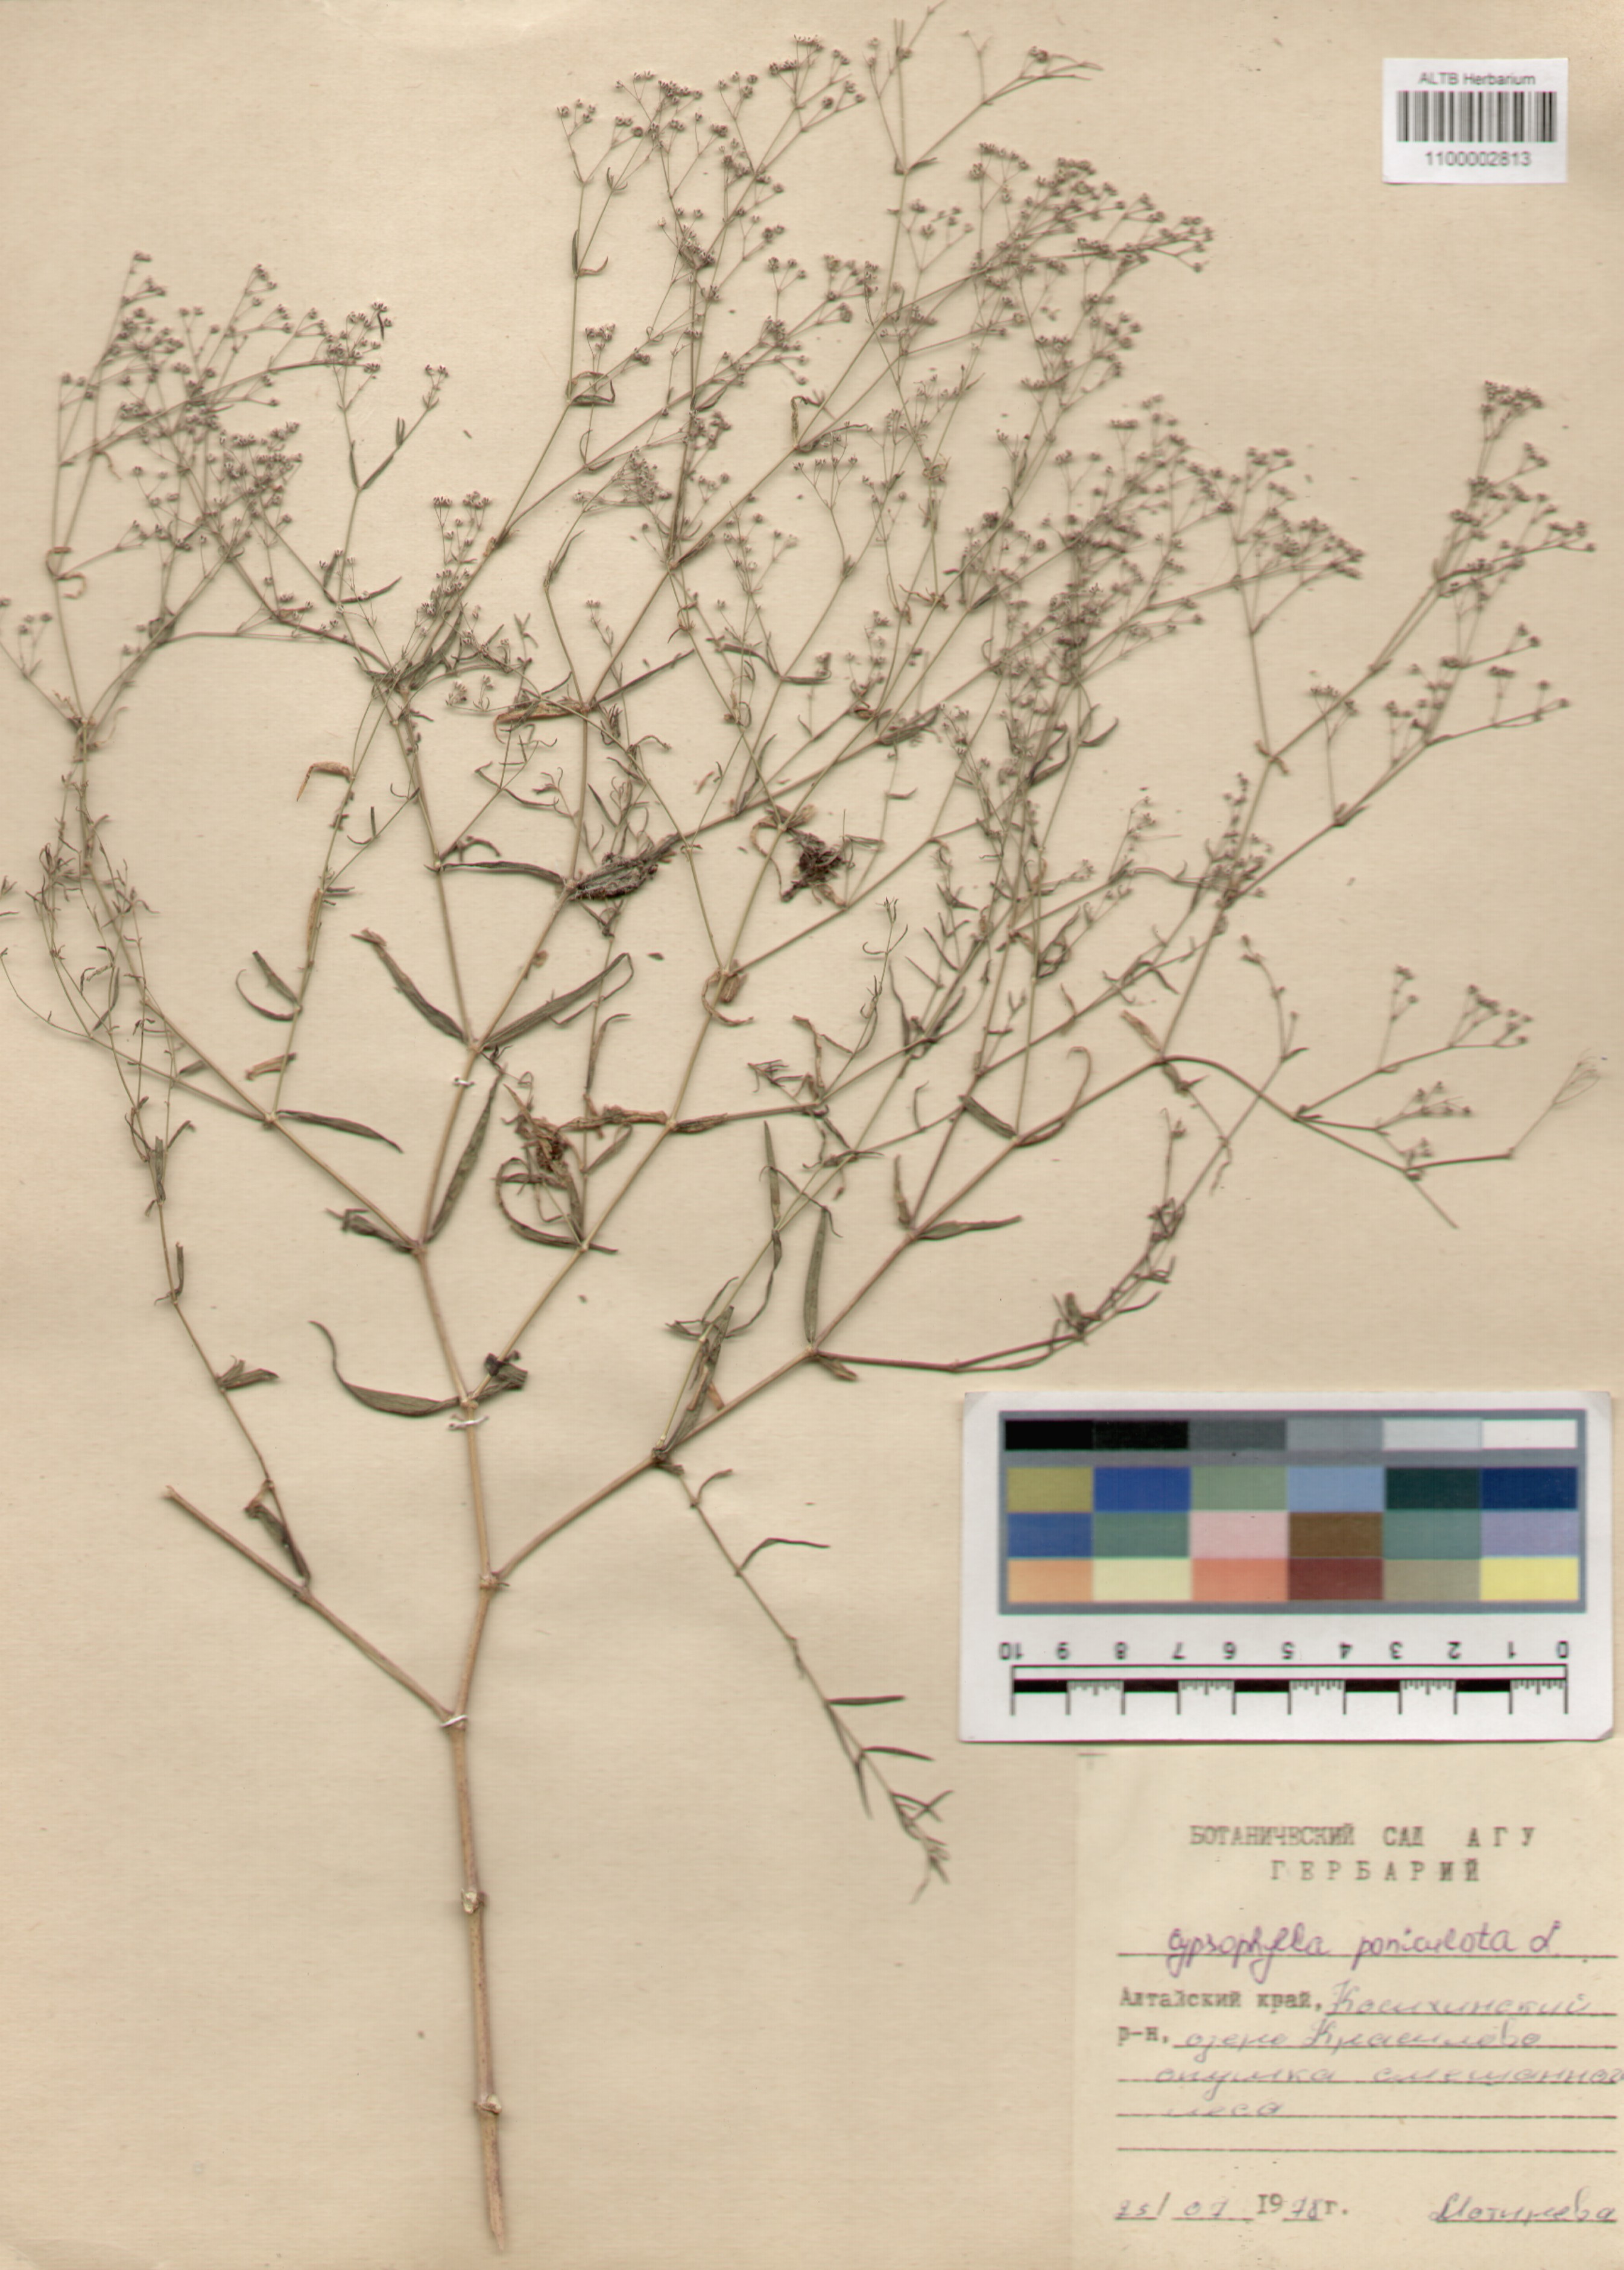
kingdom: Plantae
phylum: Tracheophyta
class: Magnoliopsida
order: Caryophyllales
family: Caryophyllaceae
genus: Gypsophila
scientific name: Gypsophila paniculata
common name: Baby's-breath
